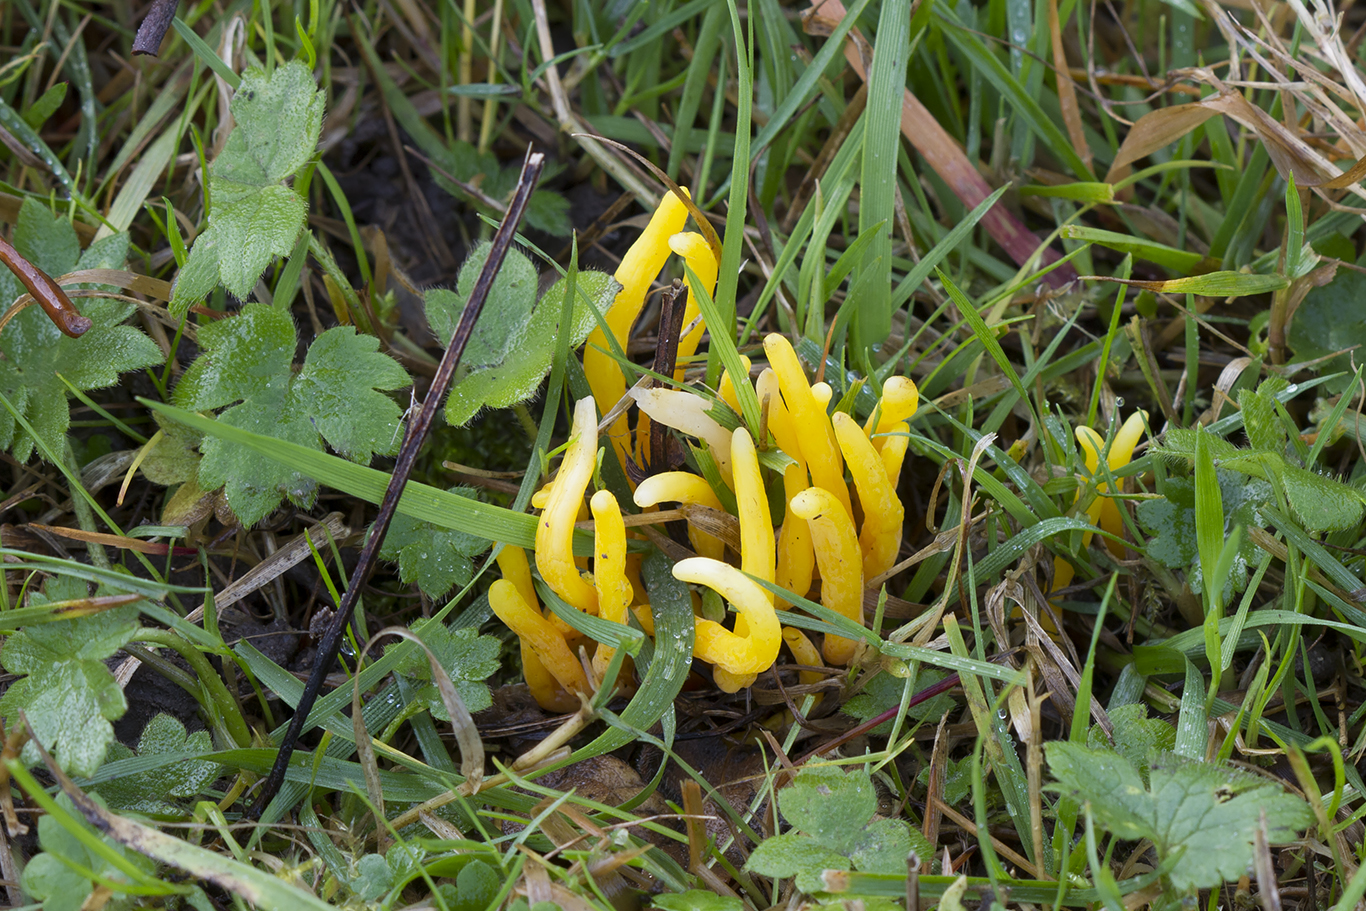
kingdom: Fungi
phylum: Basidiomycota
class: Agaricomycetes
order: Agaricales
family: Clavariaceae
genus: Clavulinopsis
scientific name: Clavulinopsis laeticolor
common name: flamme-køllesvamp
